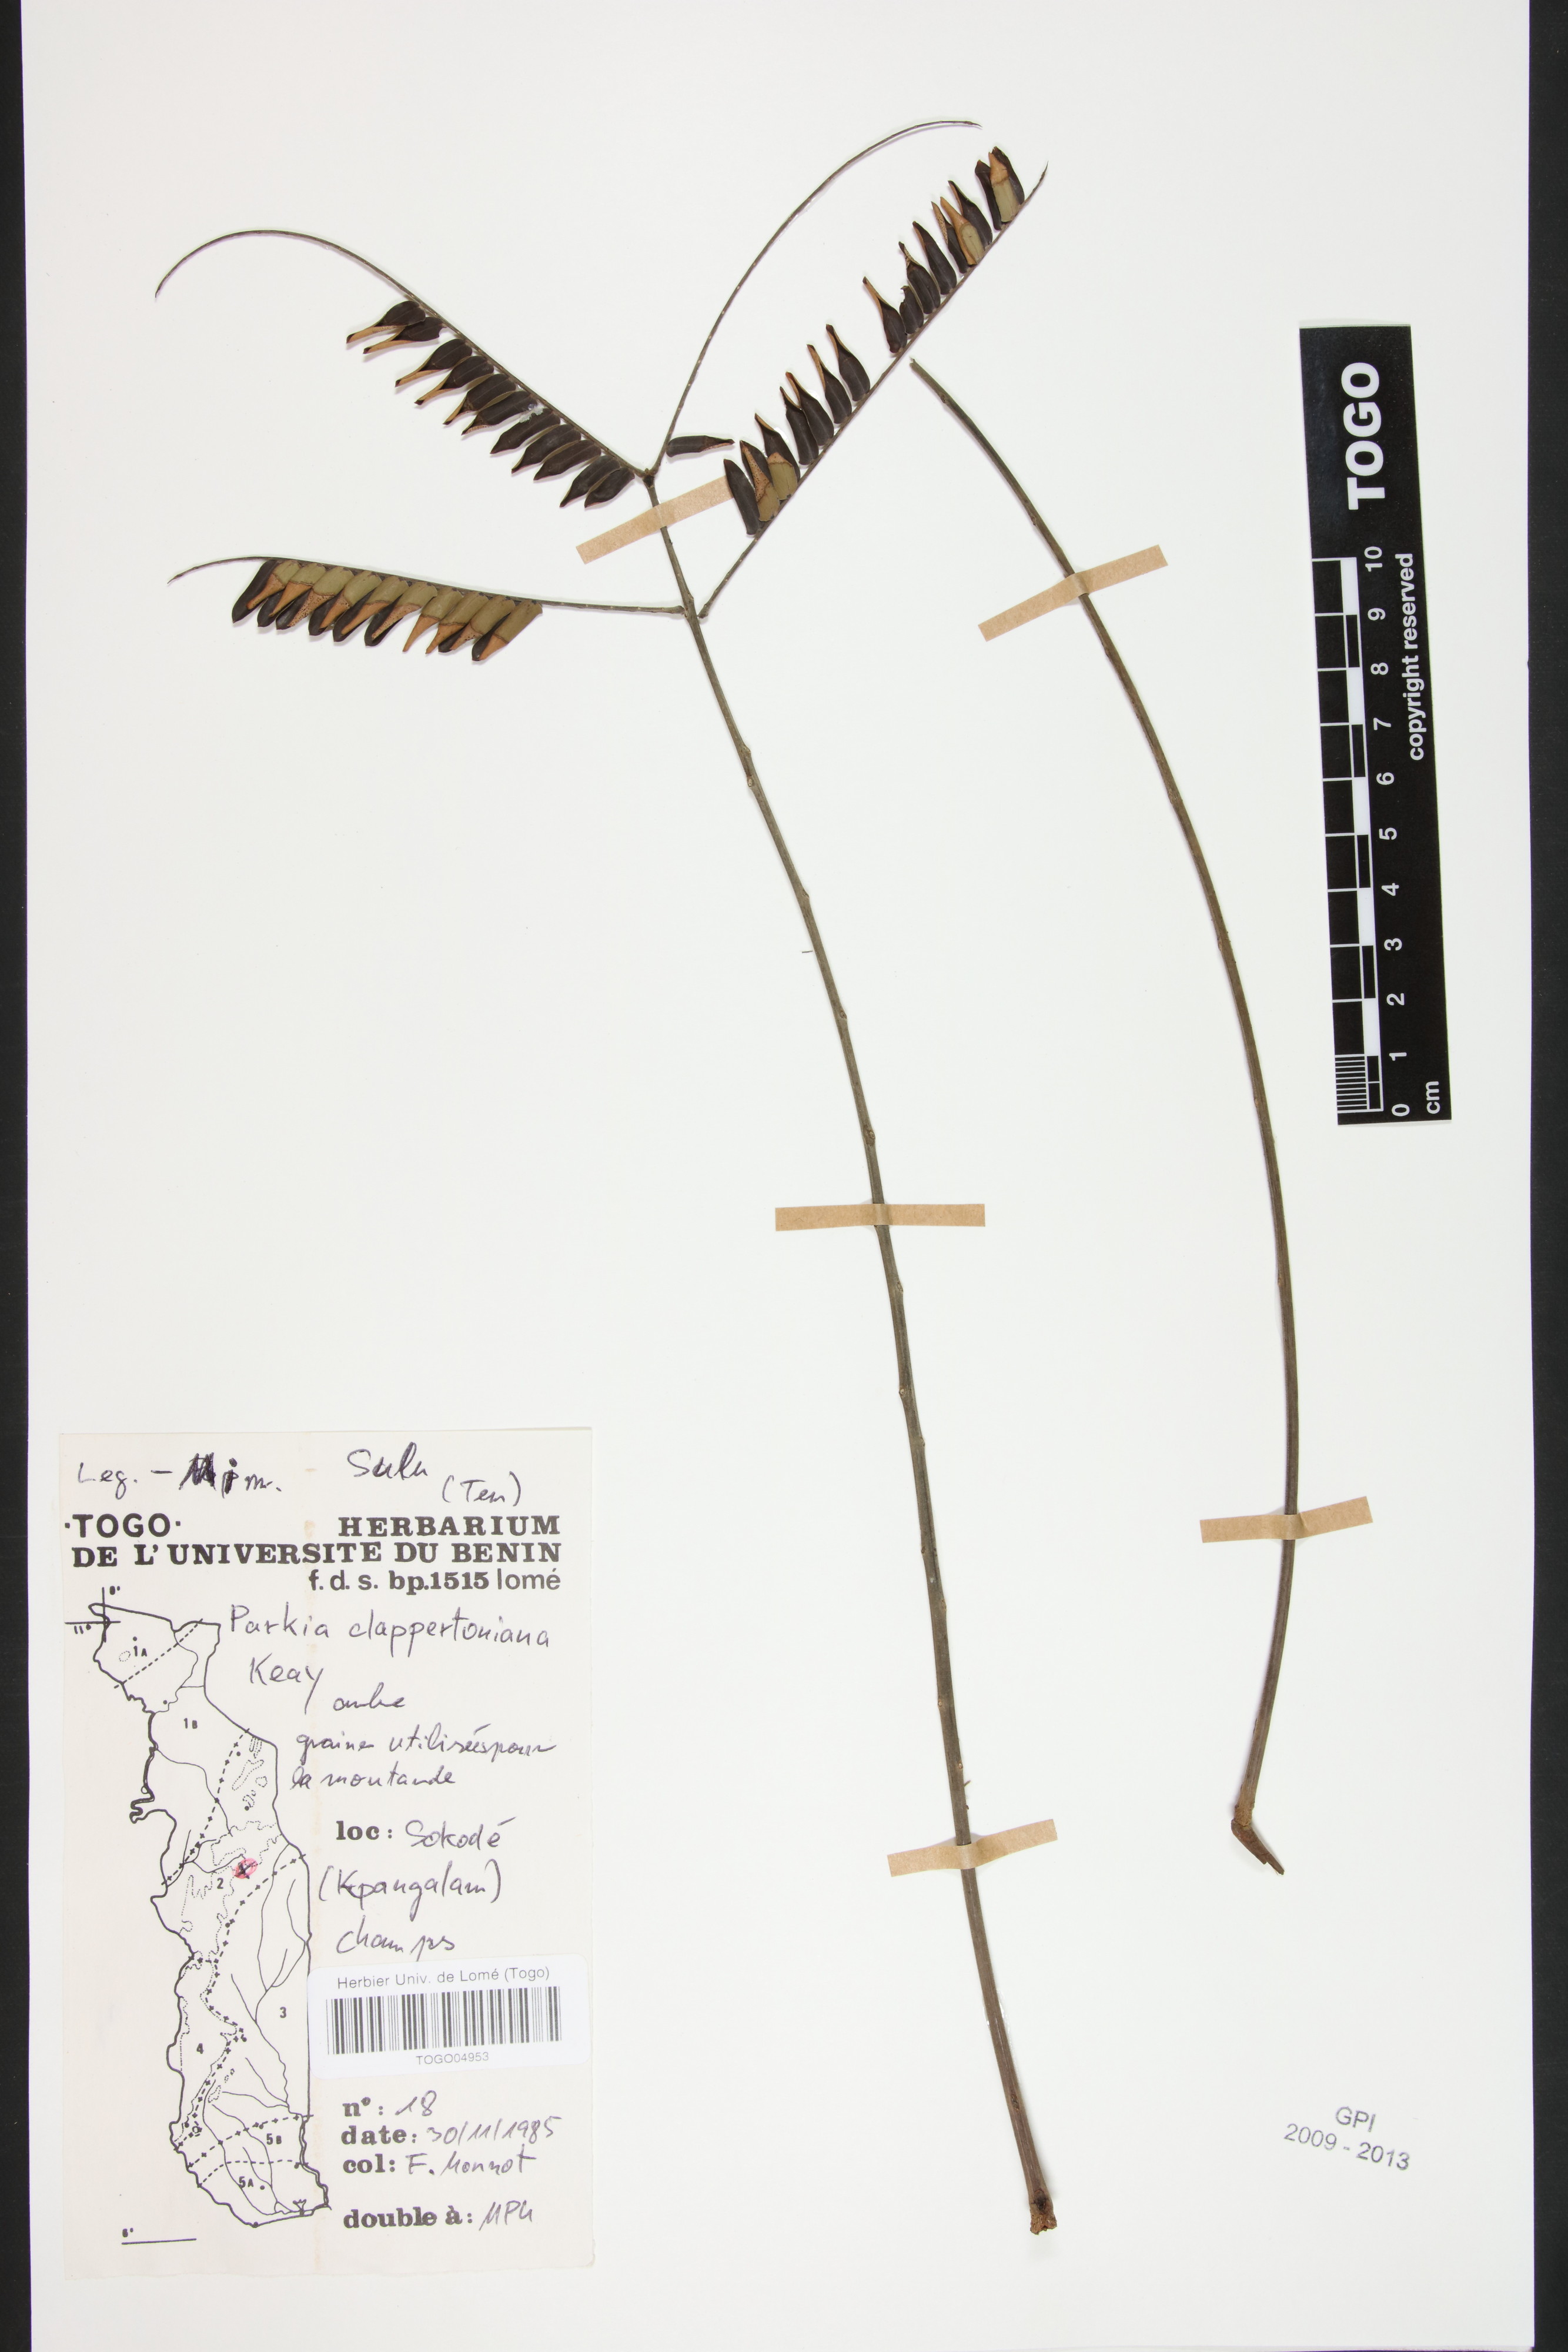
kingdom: Plantae
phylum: Tracheophyta
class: Magnoliopsida
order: Fabales
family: Fabaceae
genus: Parkia
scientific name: Parkia biglobosa
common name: African locust-bean
